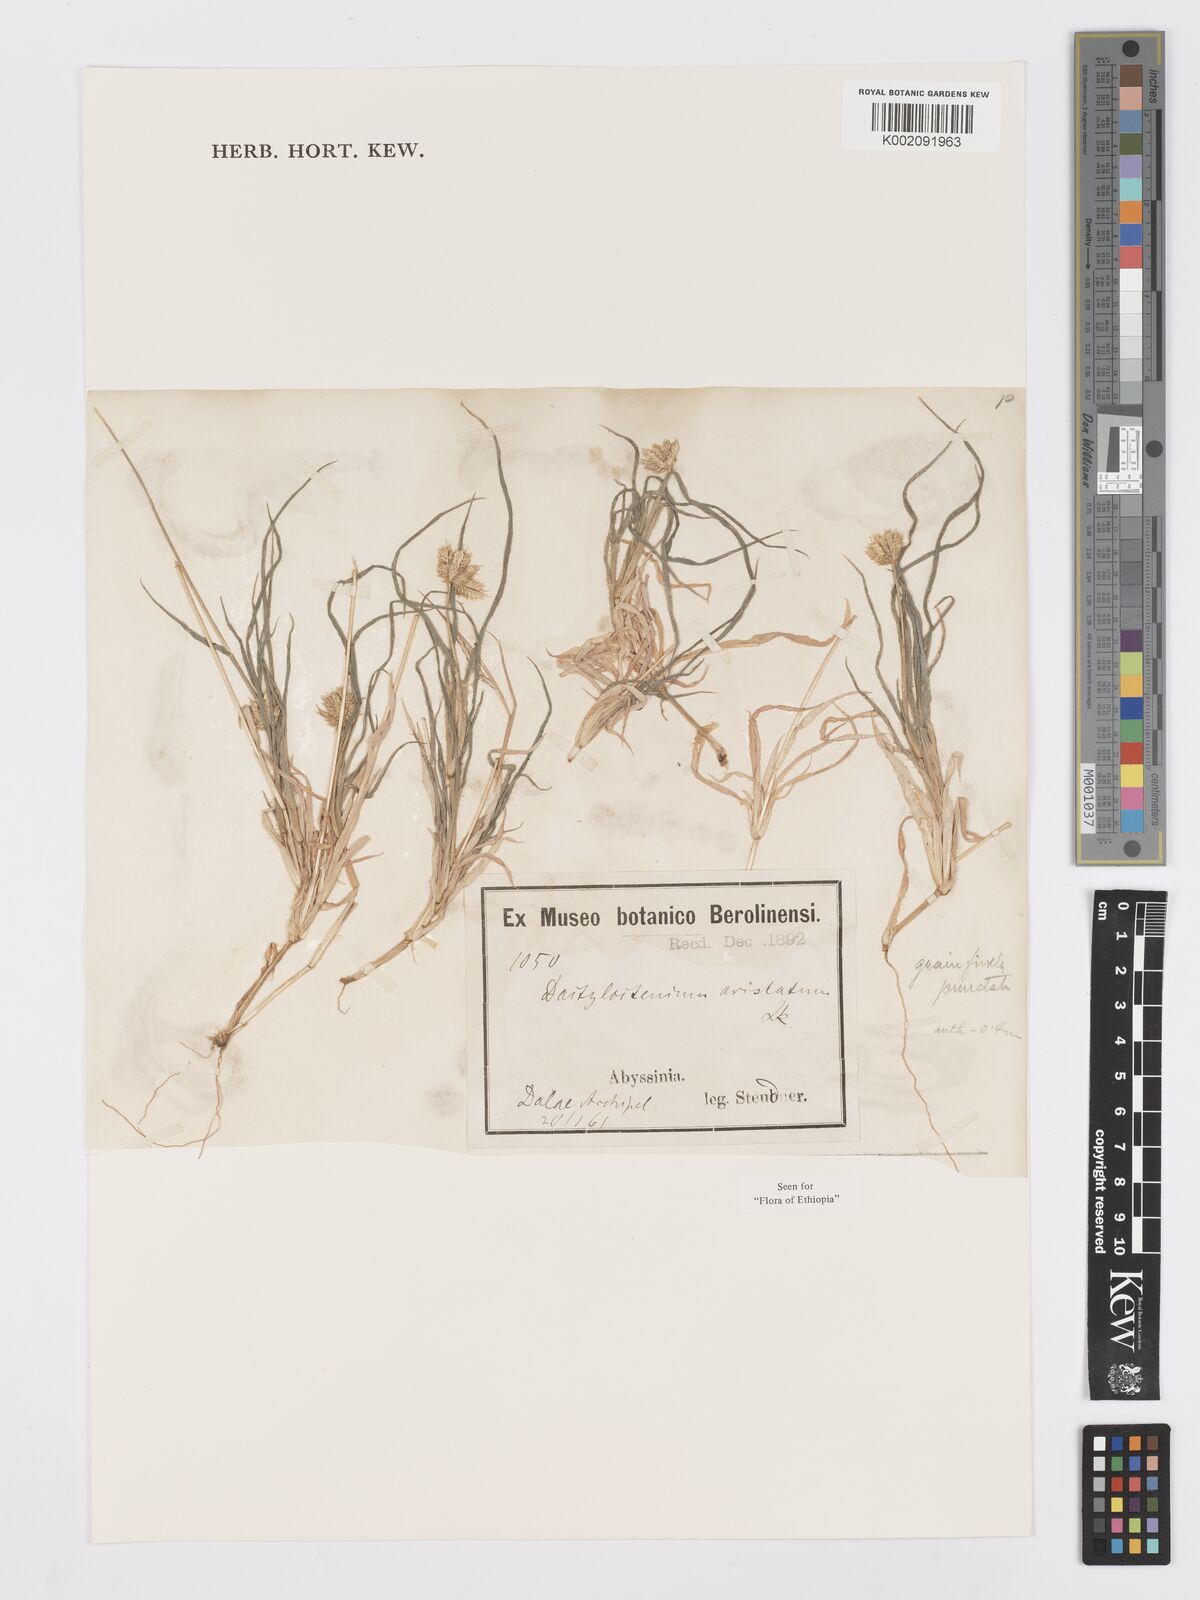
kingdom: Plantae
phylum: Tracheophyta
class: Liliopsida
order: Poales
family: Poaceae
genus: Dactyloctenium
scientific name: Dactyloctenium aristatum
